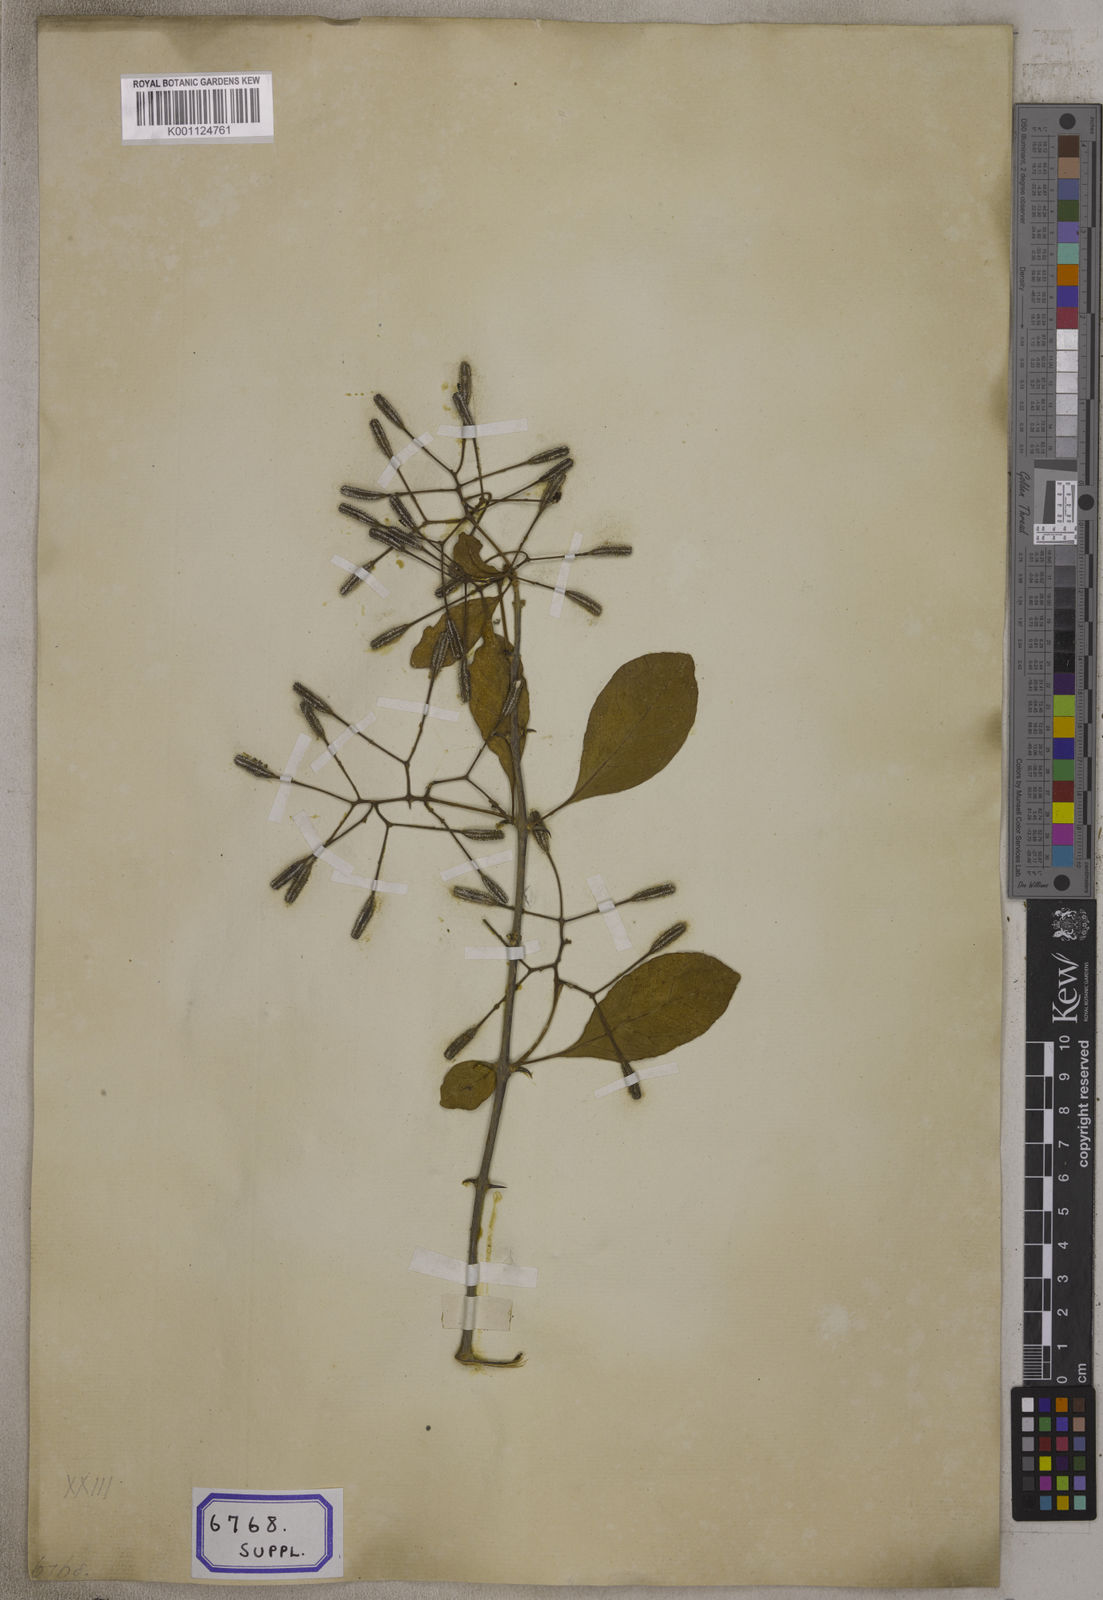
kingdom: Plantae
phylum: Tracheophyta
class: Magnoliopsida
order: Caryophyllales
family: Nyctaginaceae
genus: Pisonia
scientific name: Pisonia aculeata
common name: Cockspur vine
